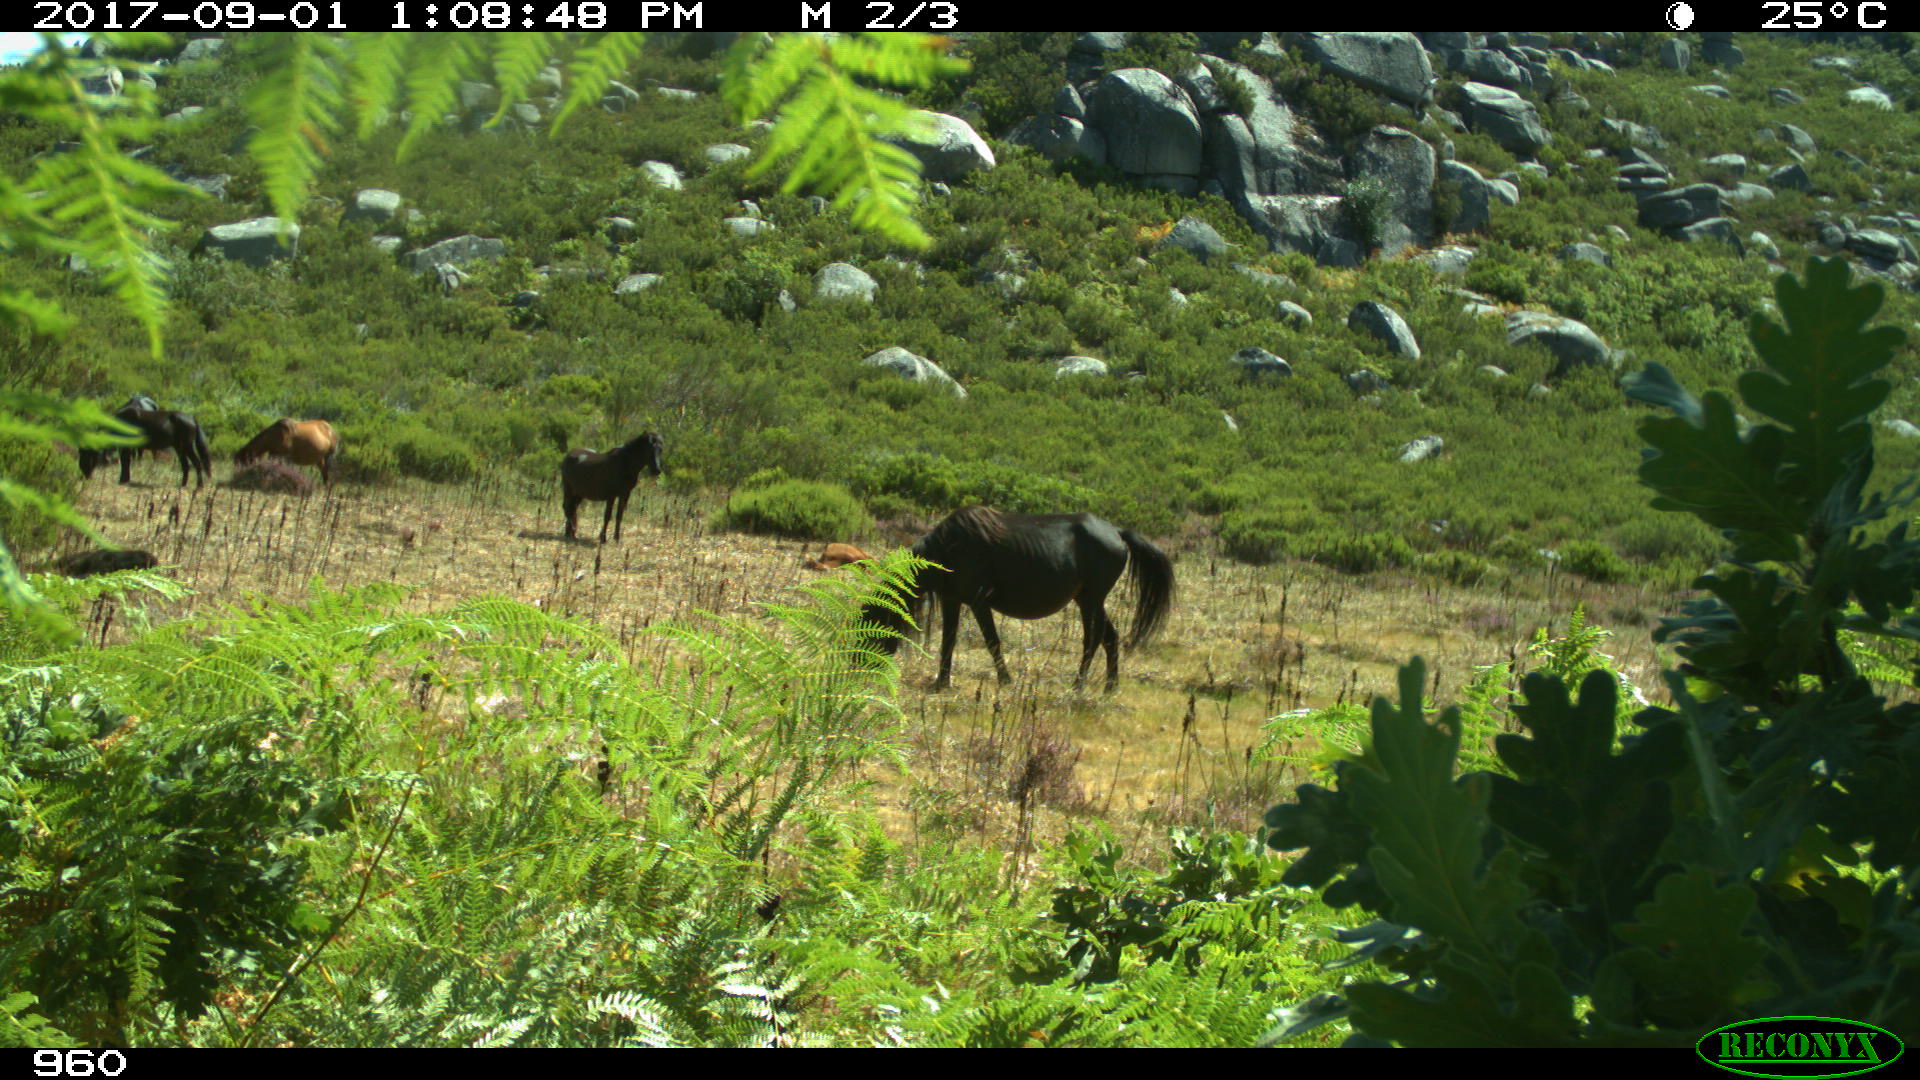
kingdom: Animalia
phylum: Chordata
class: Mammalia
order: Perissodactyla
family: Equidae
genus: Equus
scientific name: Equus caballus
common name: Horse
